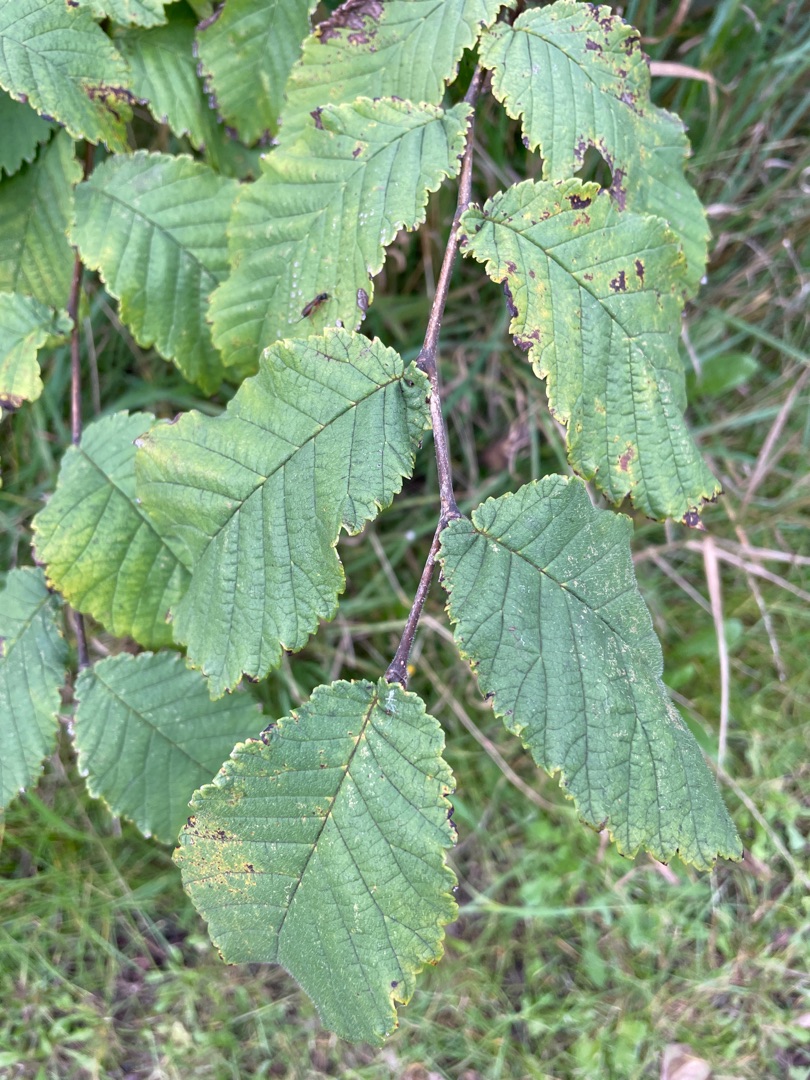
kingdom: Plantae
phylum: Tracheophyta
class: Magnoliopsida
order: Rosales
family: Ulmaceae
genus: Ulmus
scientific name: Ulmus glabra
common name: Skov-elm/storbladet elm
